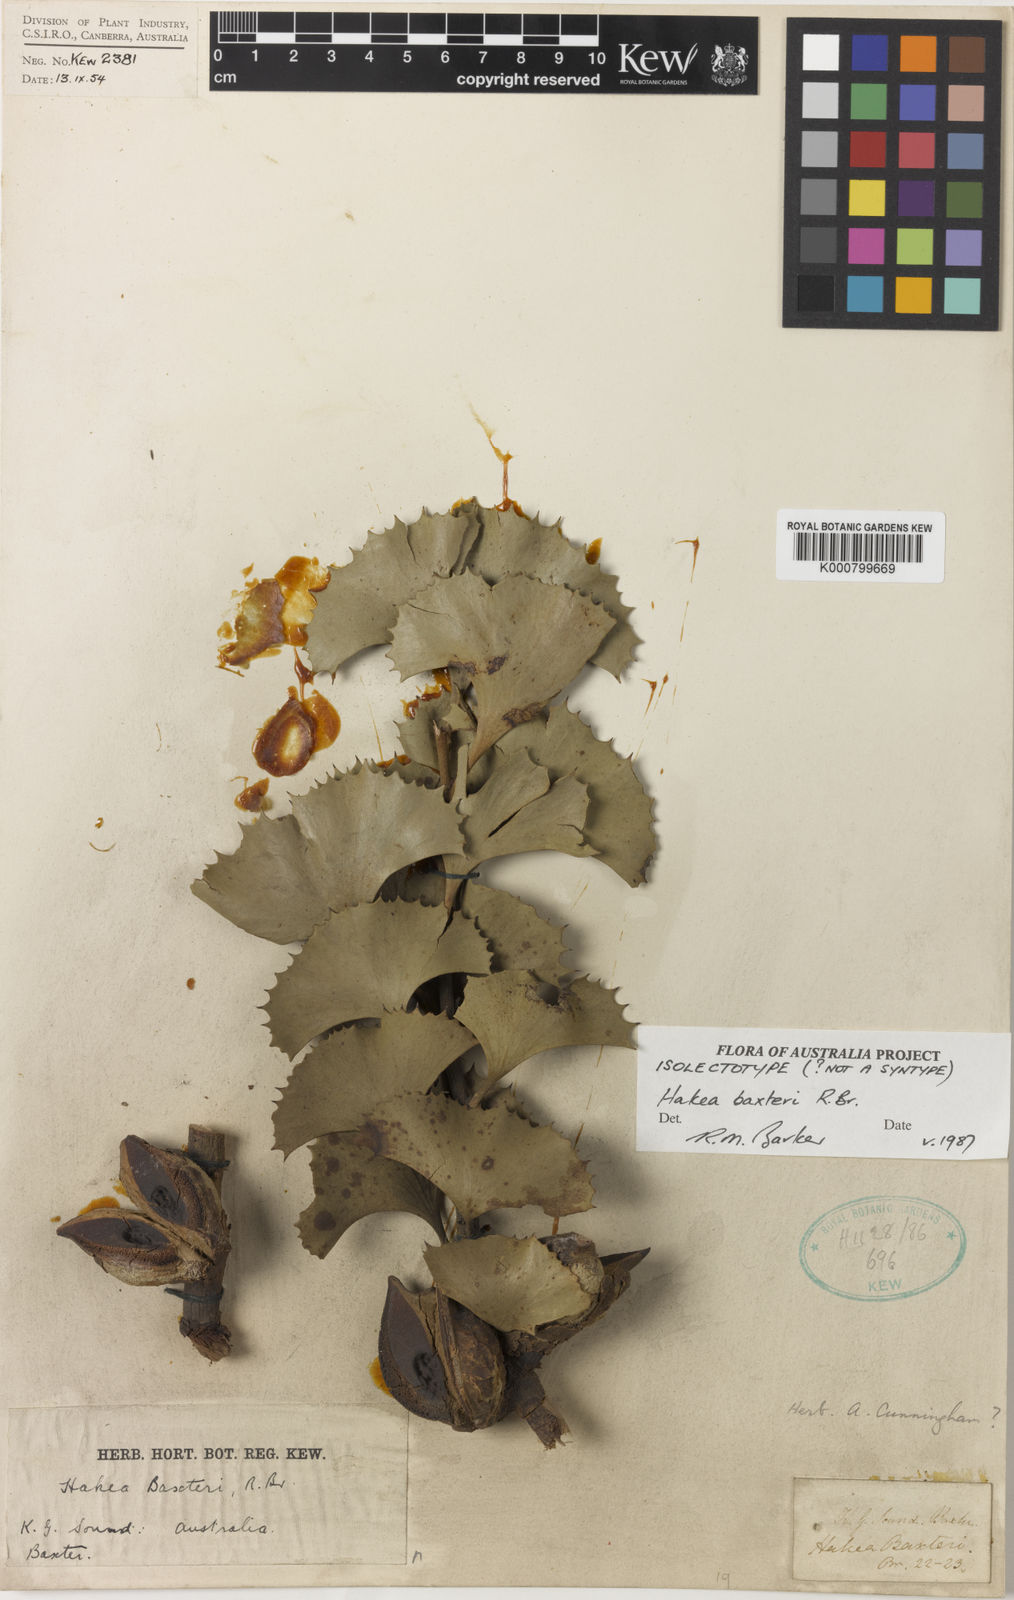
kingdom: Plantae
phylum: Tracheophyta
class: Magnoliopsida
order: Proteales
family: Proteaceae
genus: Hakea
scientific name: Hakea baxteri
